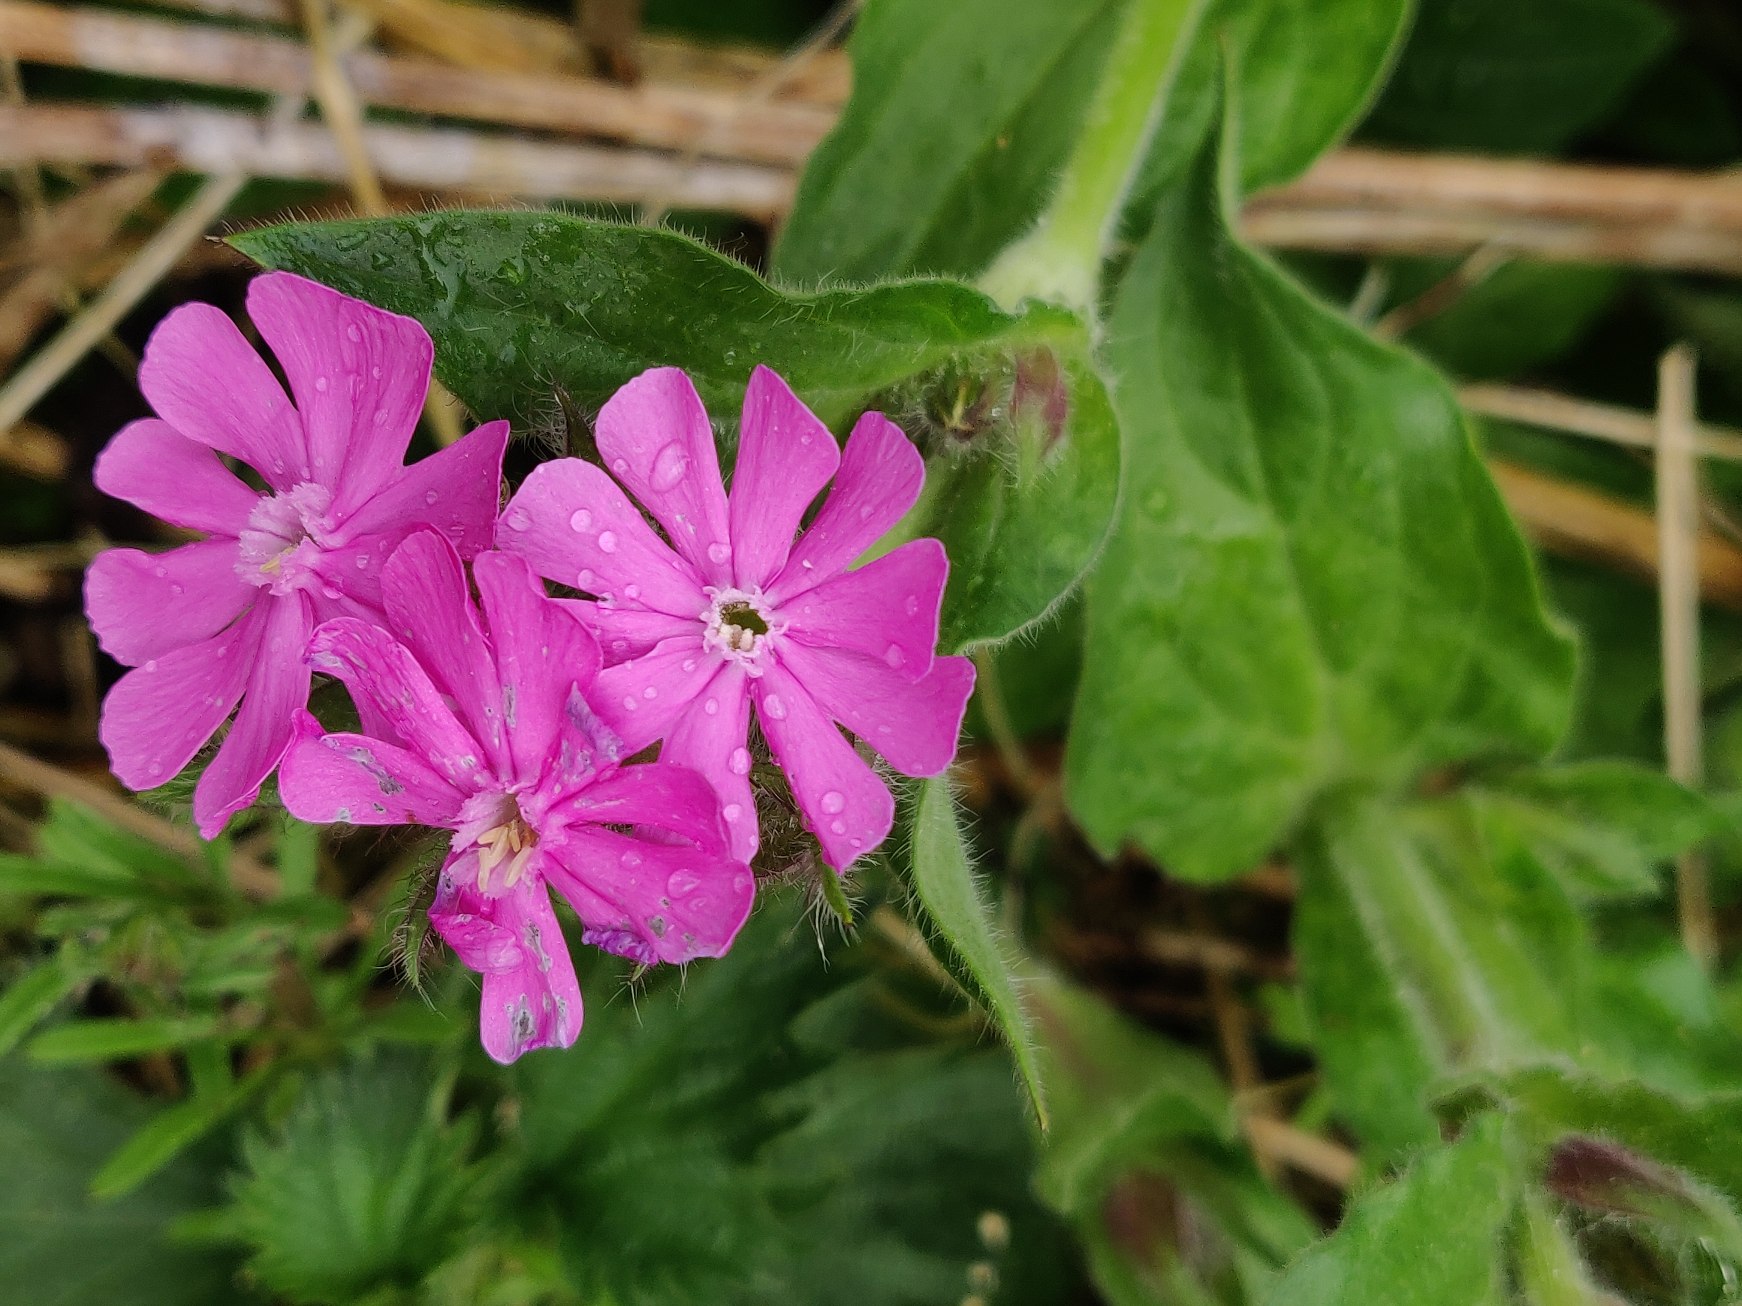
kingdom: Plantae
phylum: Tracheophyta
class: Magnoliopsida
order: Caryophyllales
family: Caryophyllaceae
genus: Silene
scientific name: Silene dioica
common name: Dagpragtstjerne
